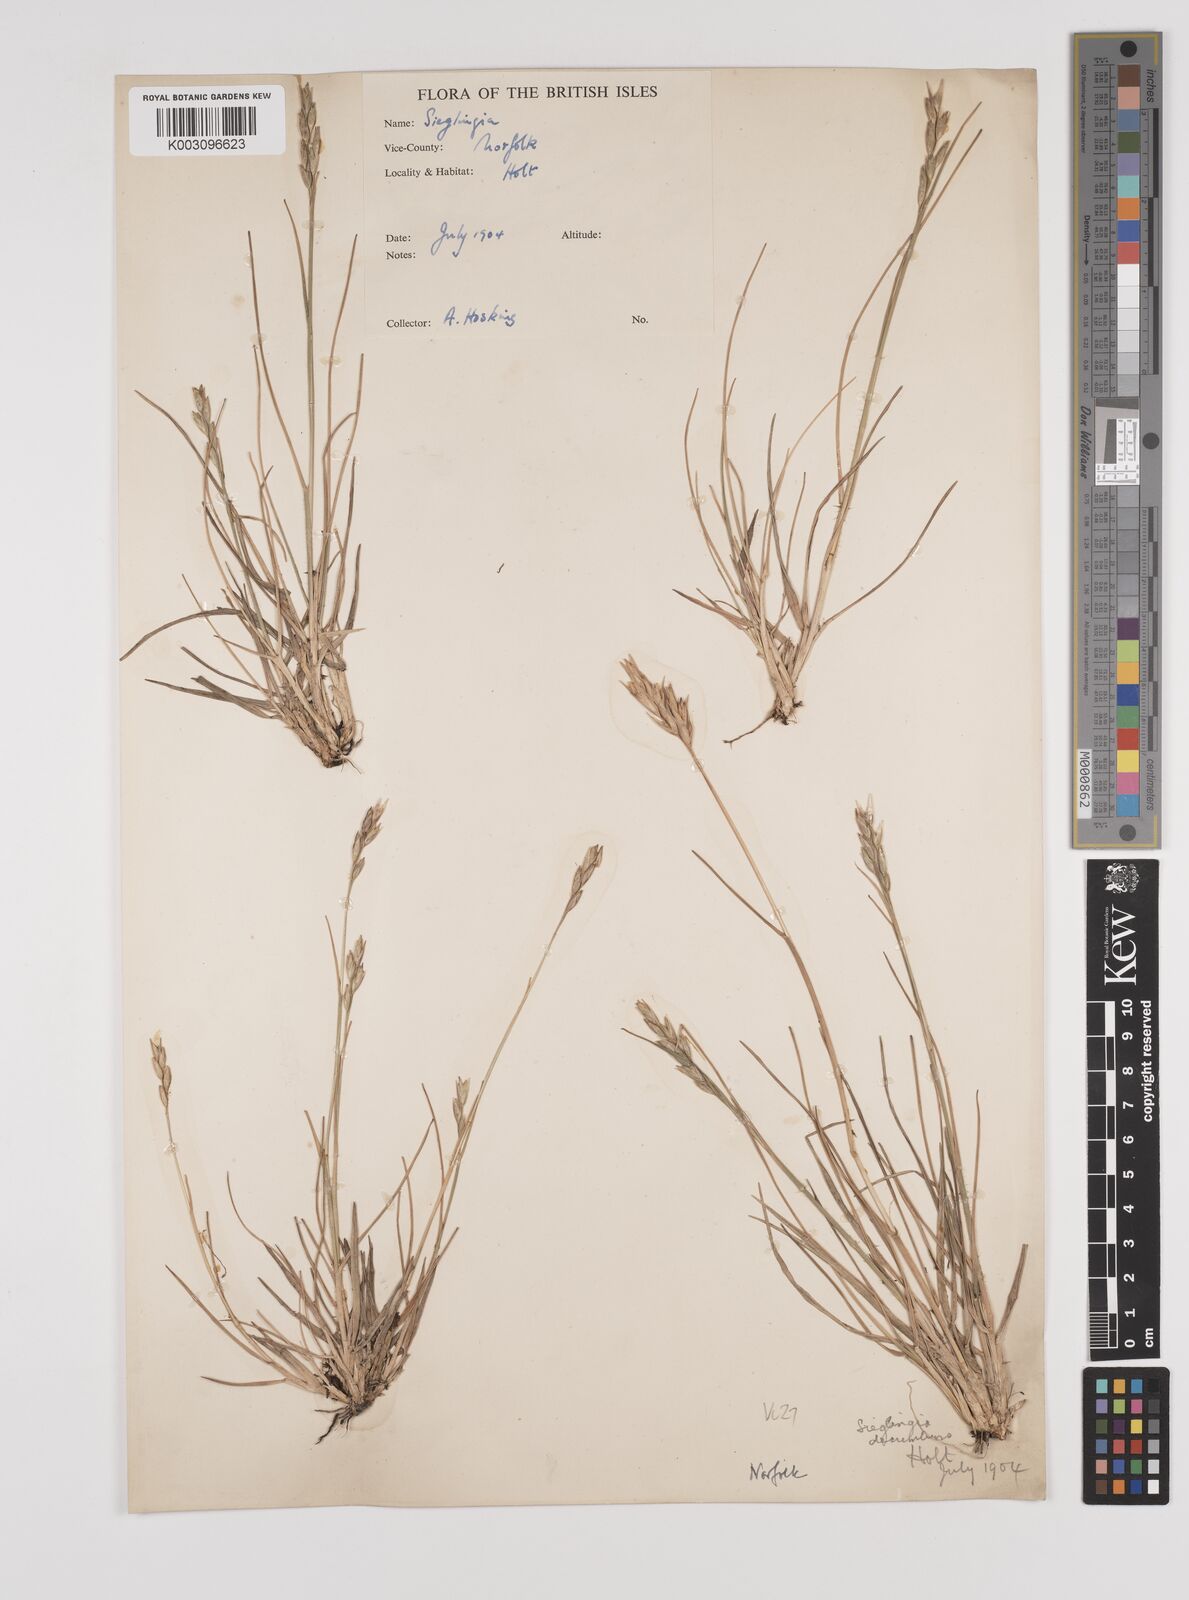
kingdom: Plantae
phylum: Tracheophyta
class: Liliopsida
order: Poales
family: Poaceae
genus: Danthonia
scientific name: Danthonia decumbens
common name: Common heathgrass
